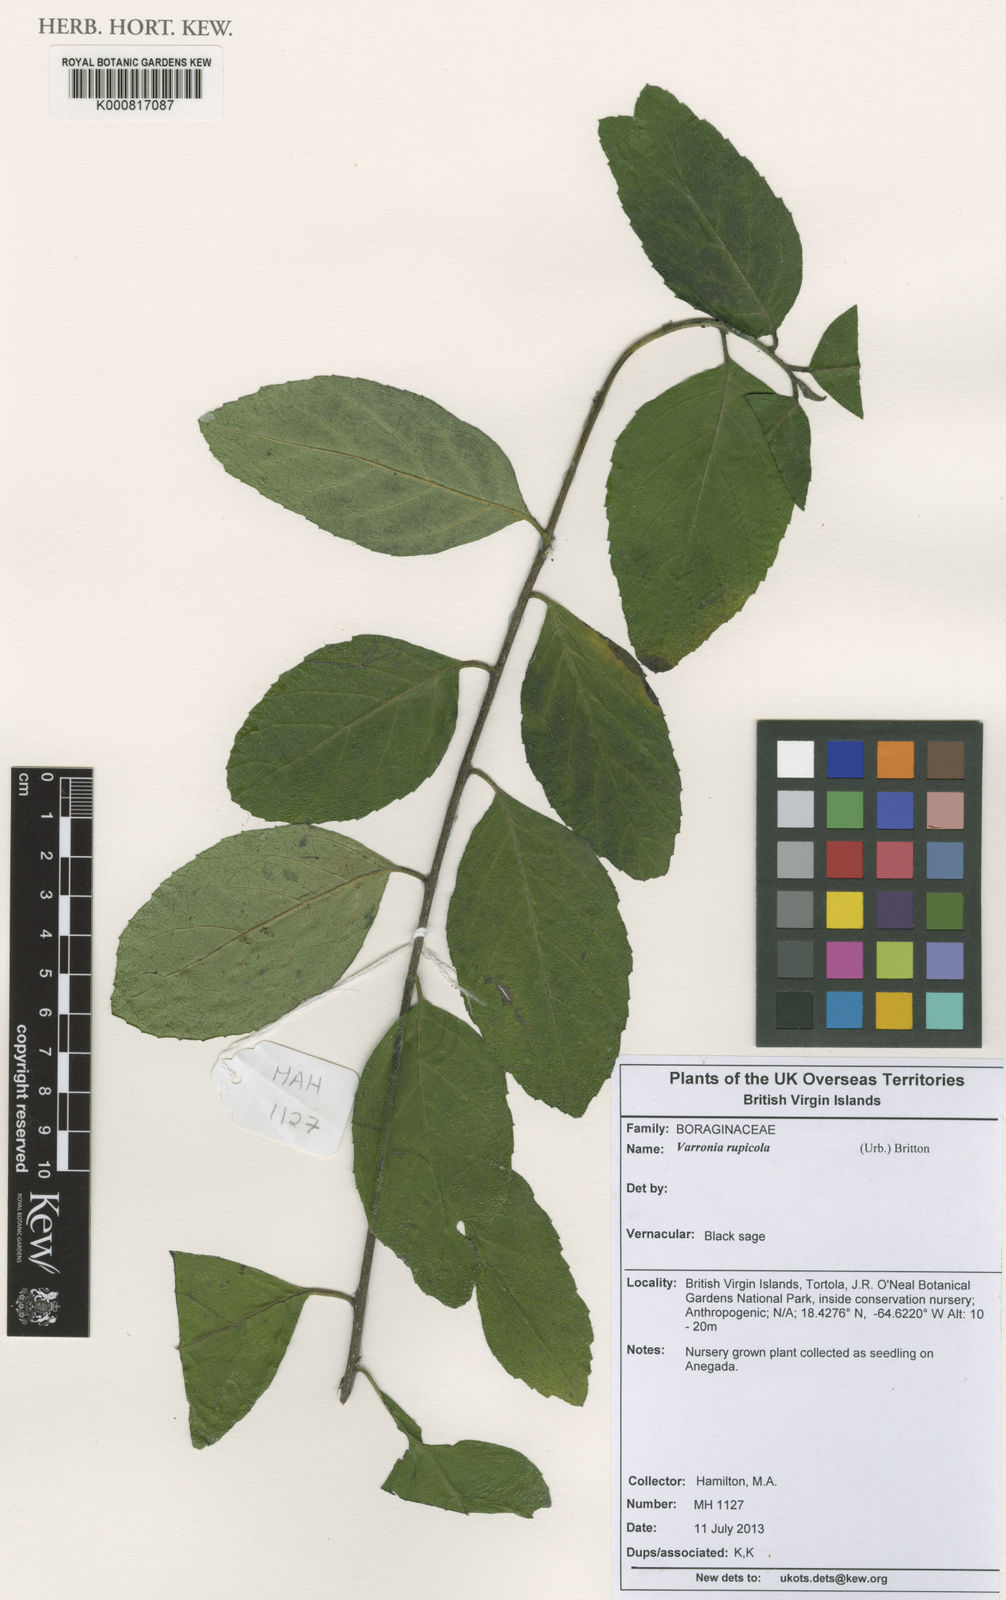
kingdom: Plantae
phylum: Tracheophyta
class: Magnoliopsida
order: Boraginales
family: Cordiaceae
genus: Varronia
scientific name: Varronia rupicola
